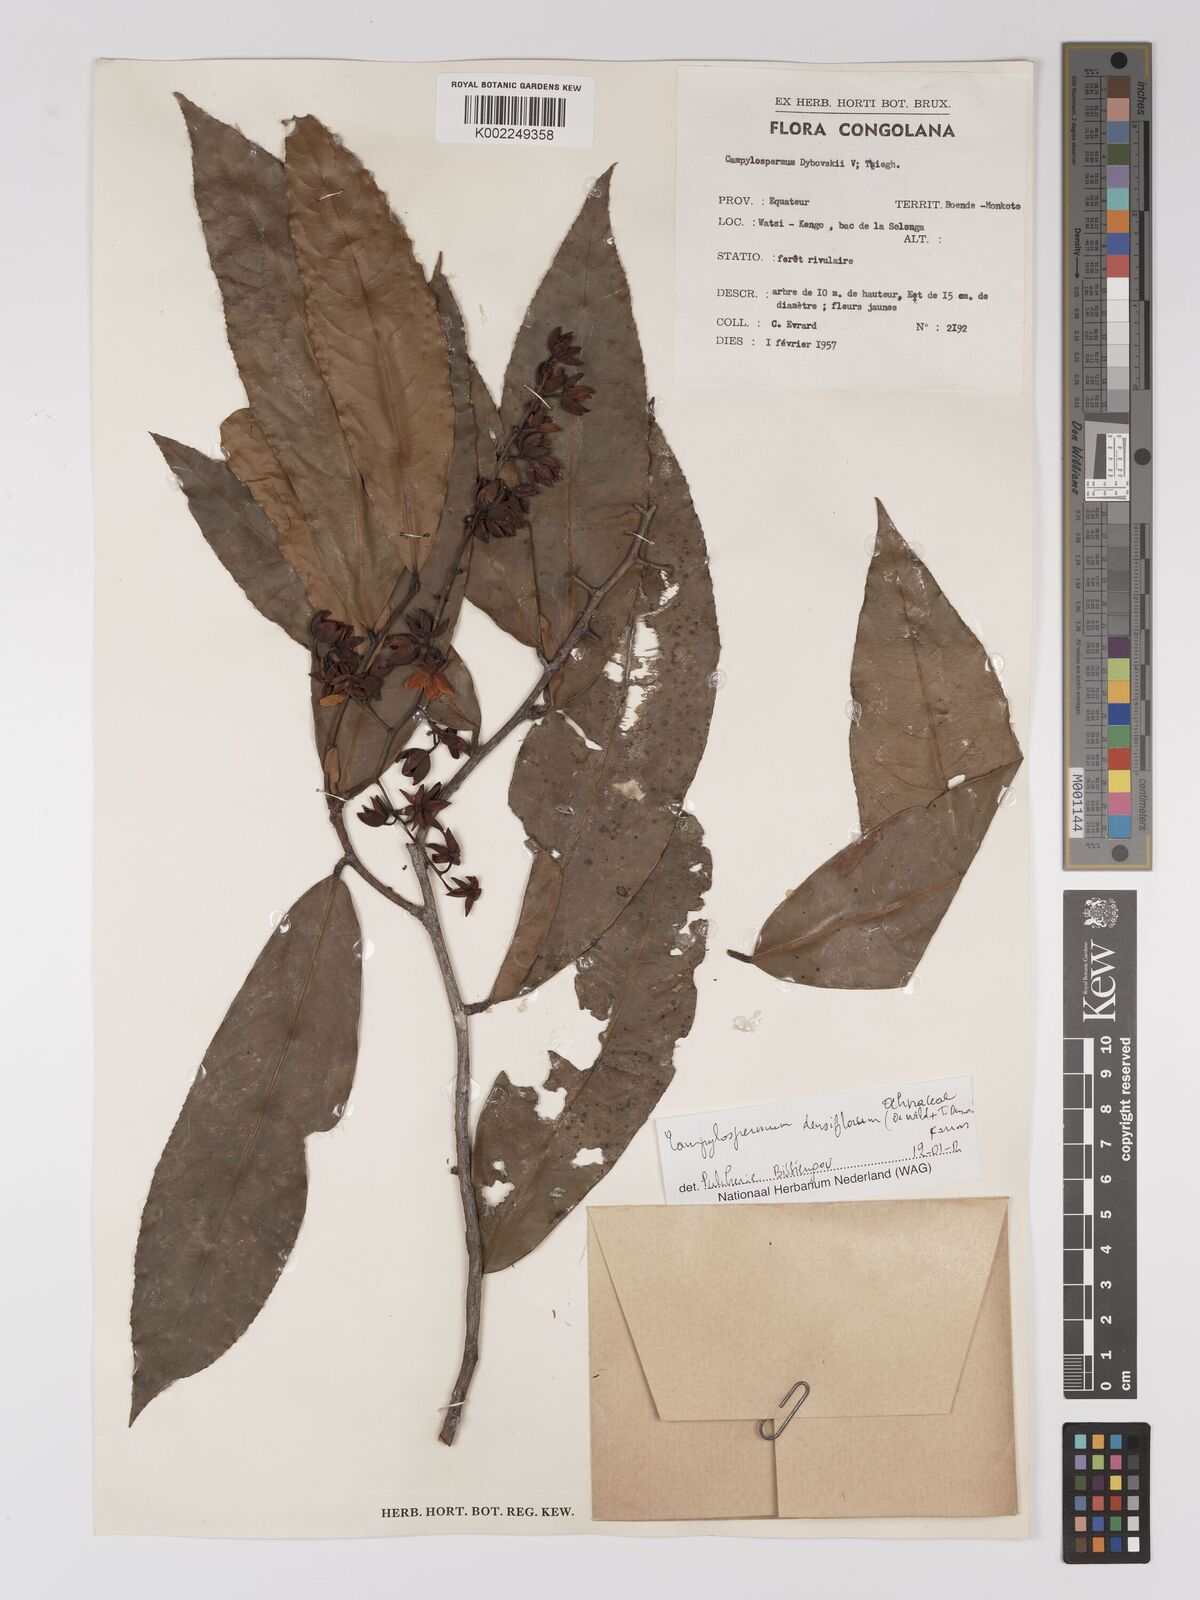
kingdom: Plantae
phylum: Tracheophyta
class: Magnoliopsida
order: Malpighiales
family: Ochnaceae
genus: Gomphia
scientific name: Gomphia densiflora
